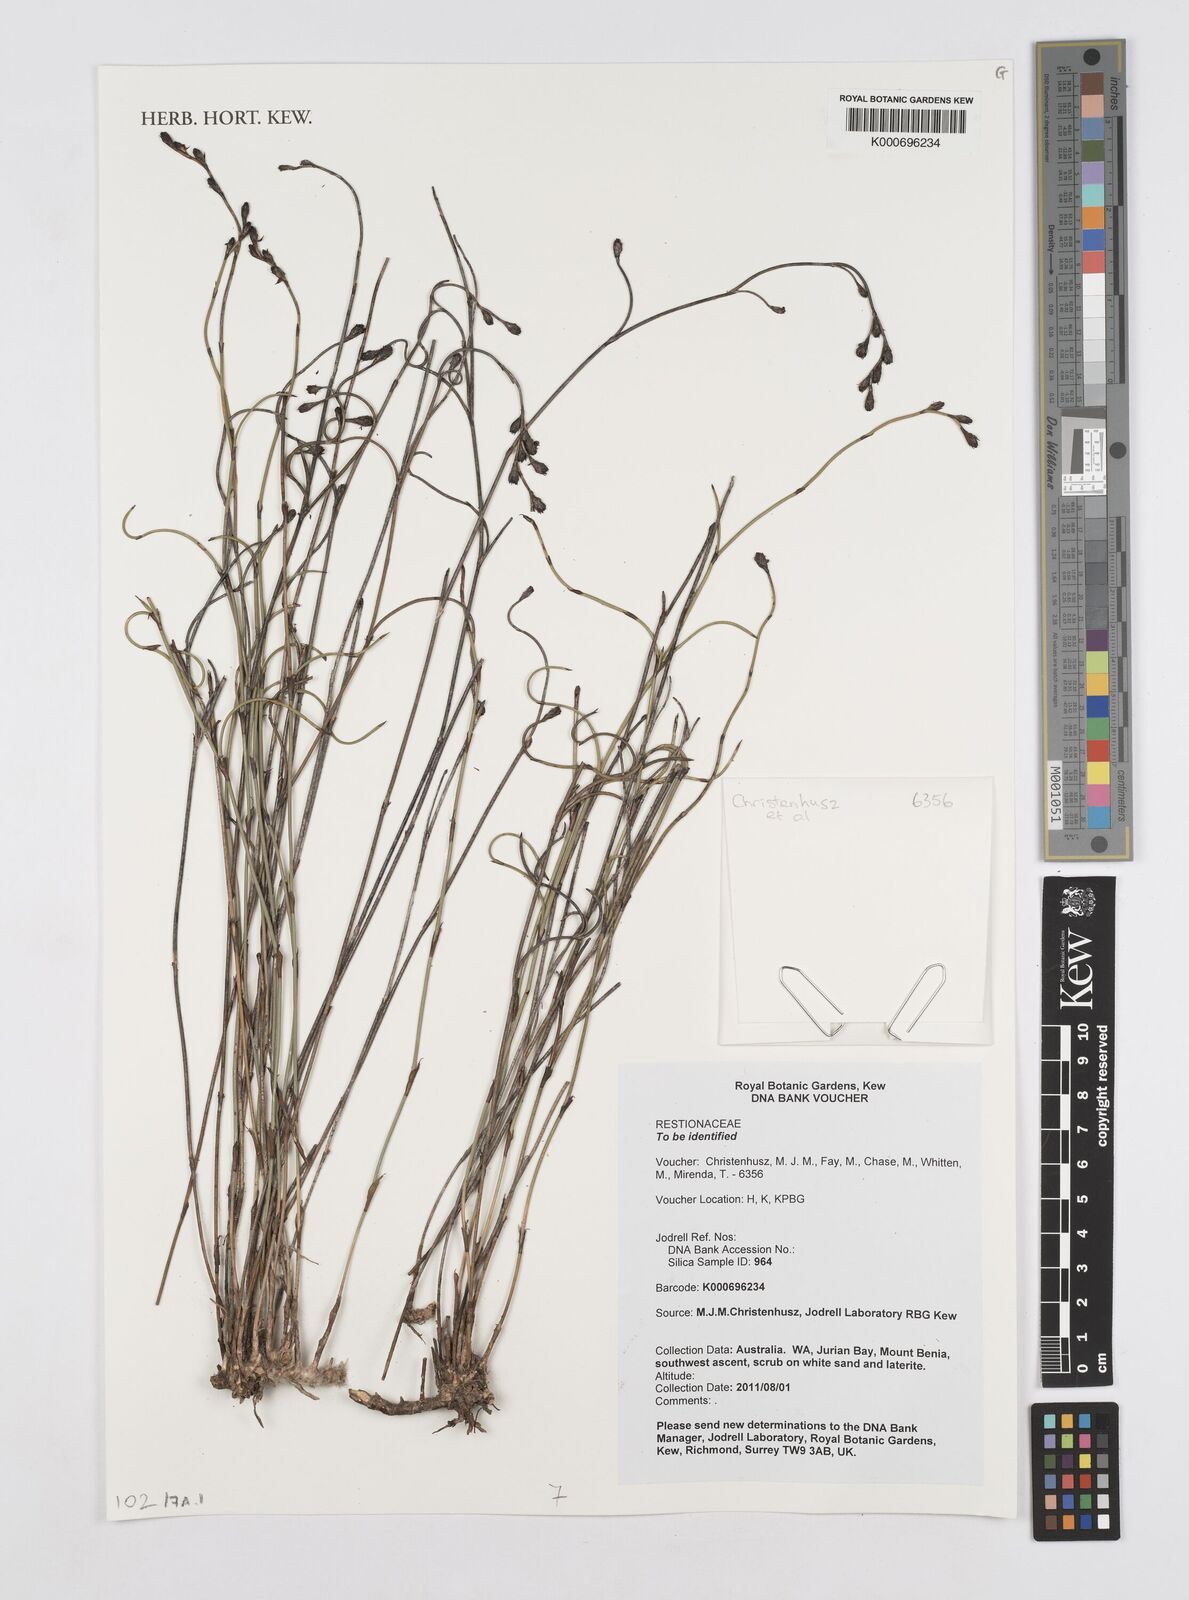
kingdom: Plantae
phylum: Tracheophyta
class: Liliopsida
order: Poales
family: Restionaceae
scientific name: Restionaceae
